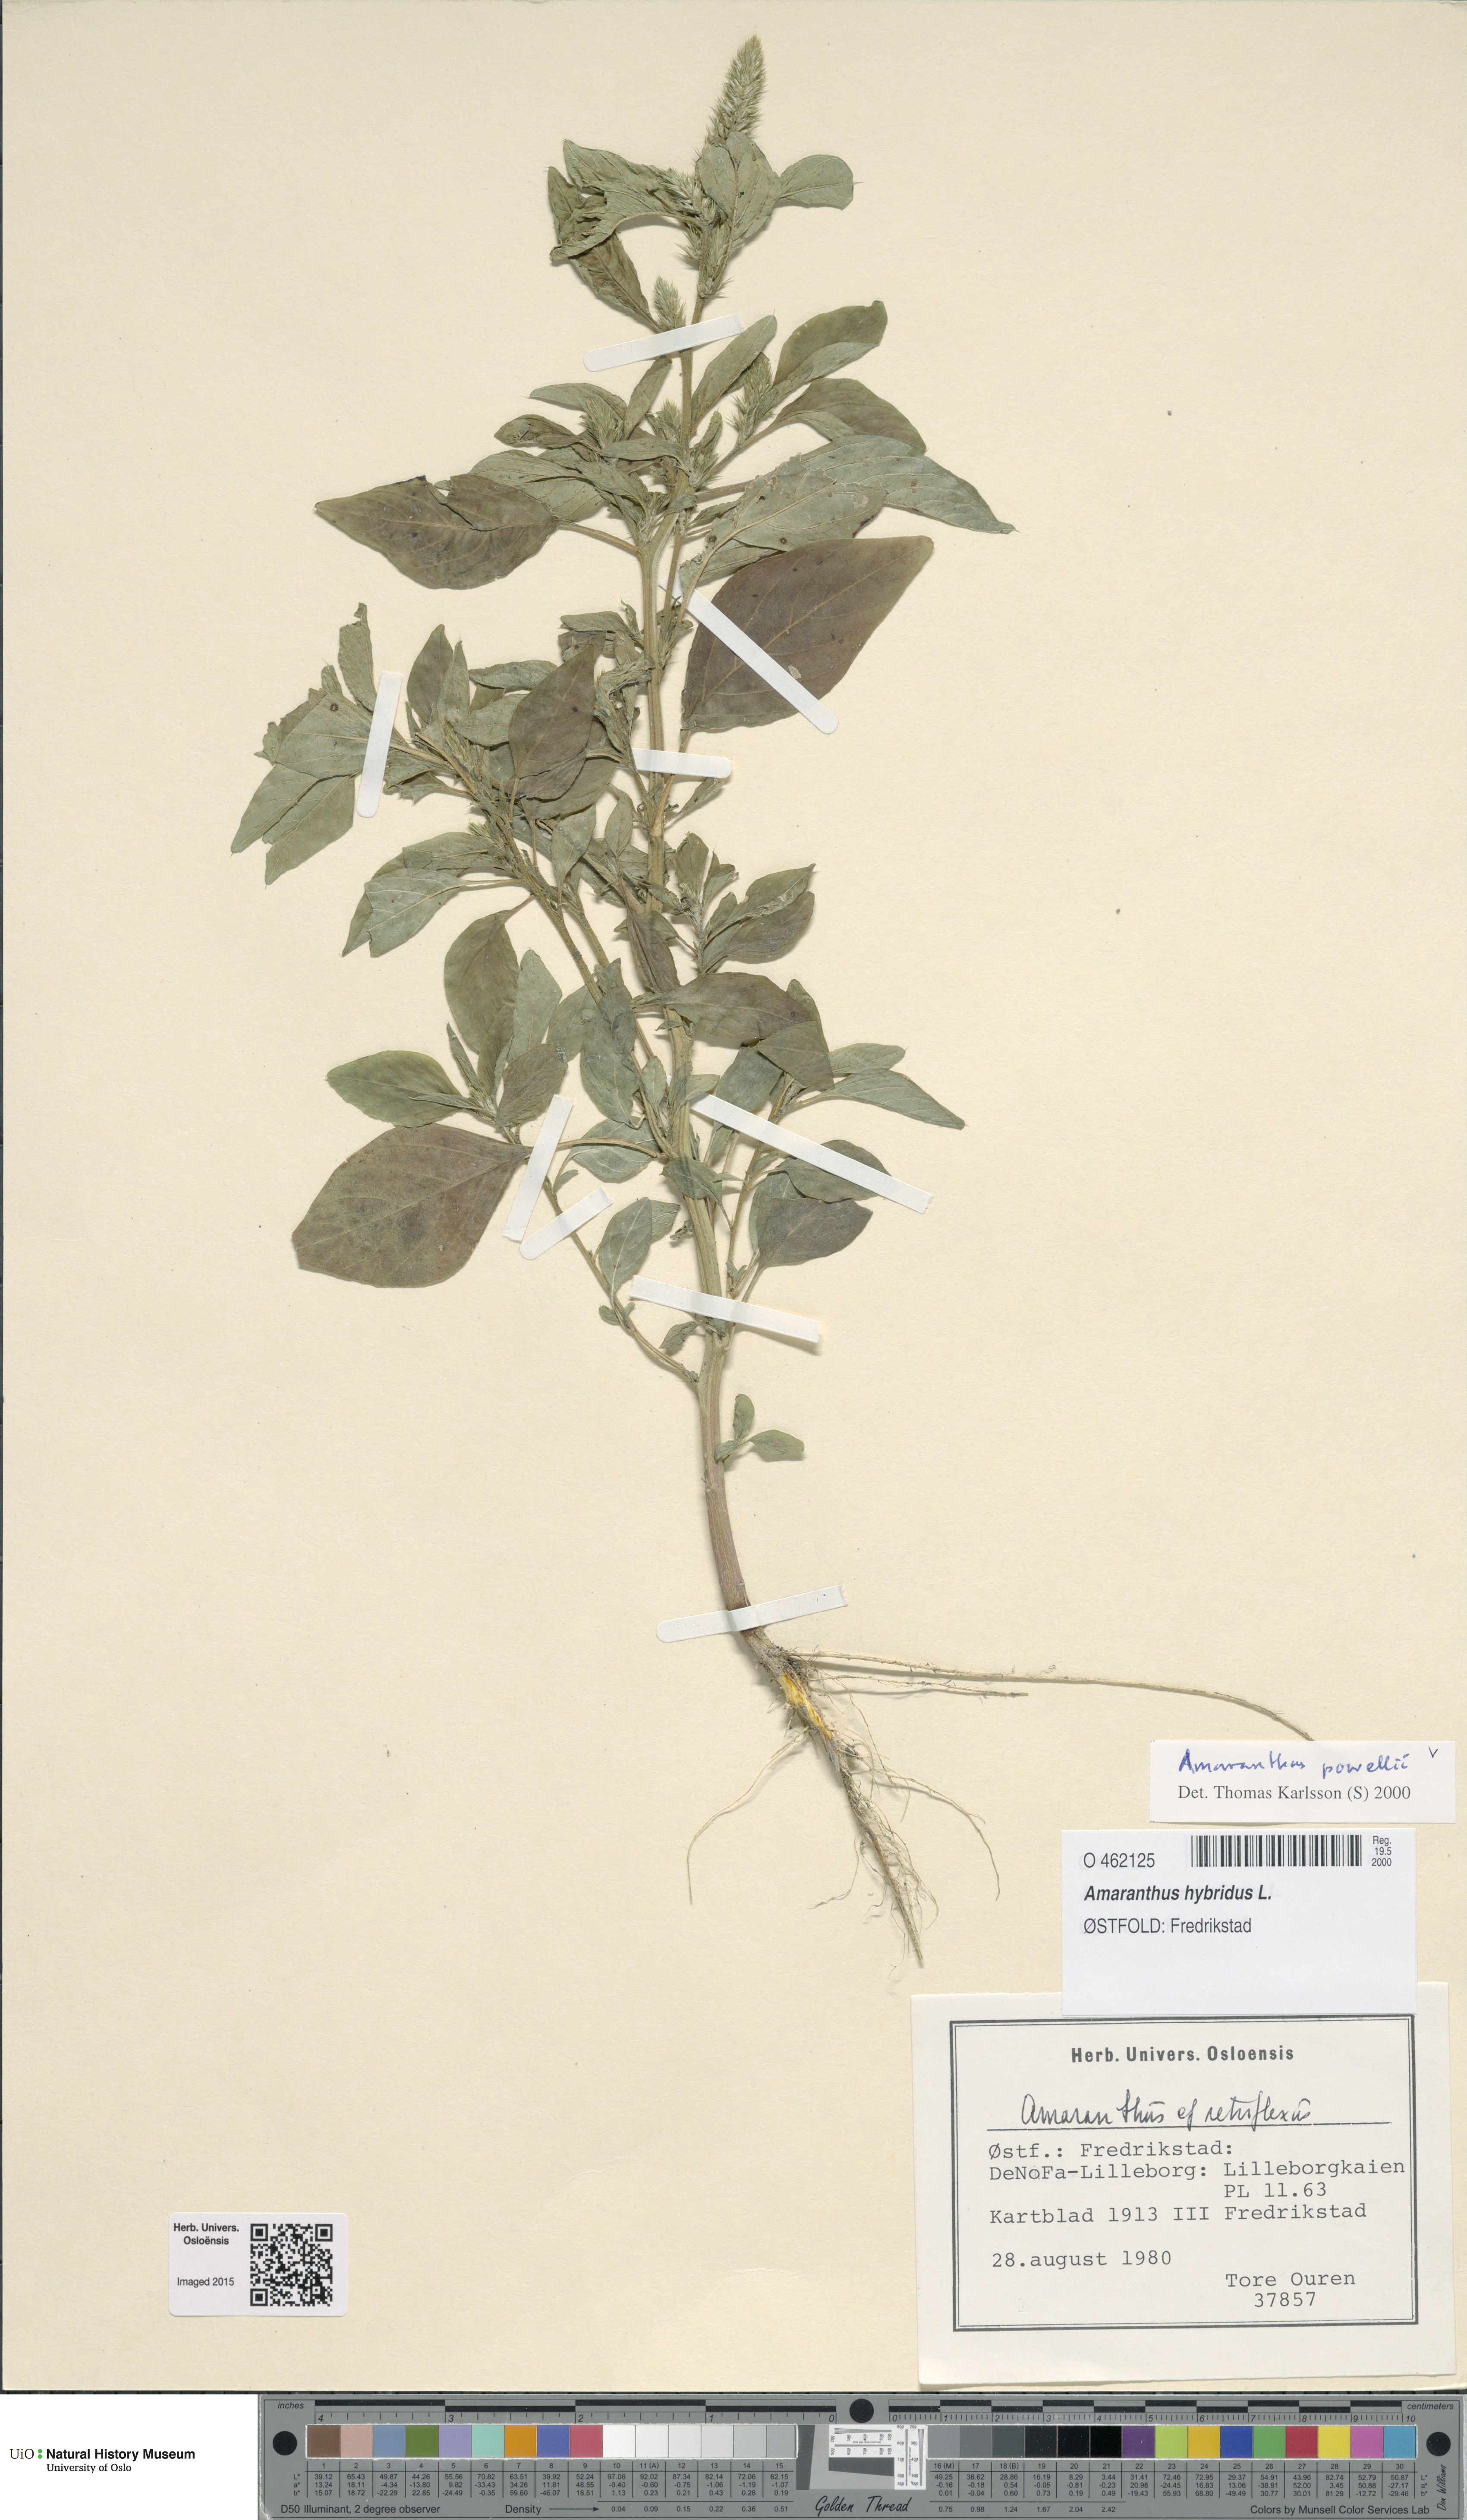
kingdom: Plantae
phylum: Tracheophyta
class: Magnoliopsida
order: Caryophyllales
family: Amaranthaceae
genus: Amaranthus
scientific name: Amaranthus powellii
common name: Powell's amaranth
